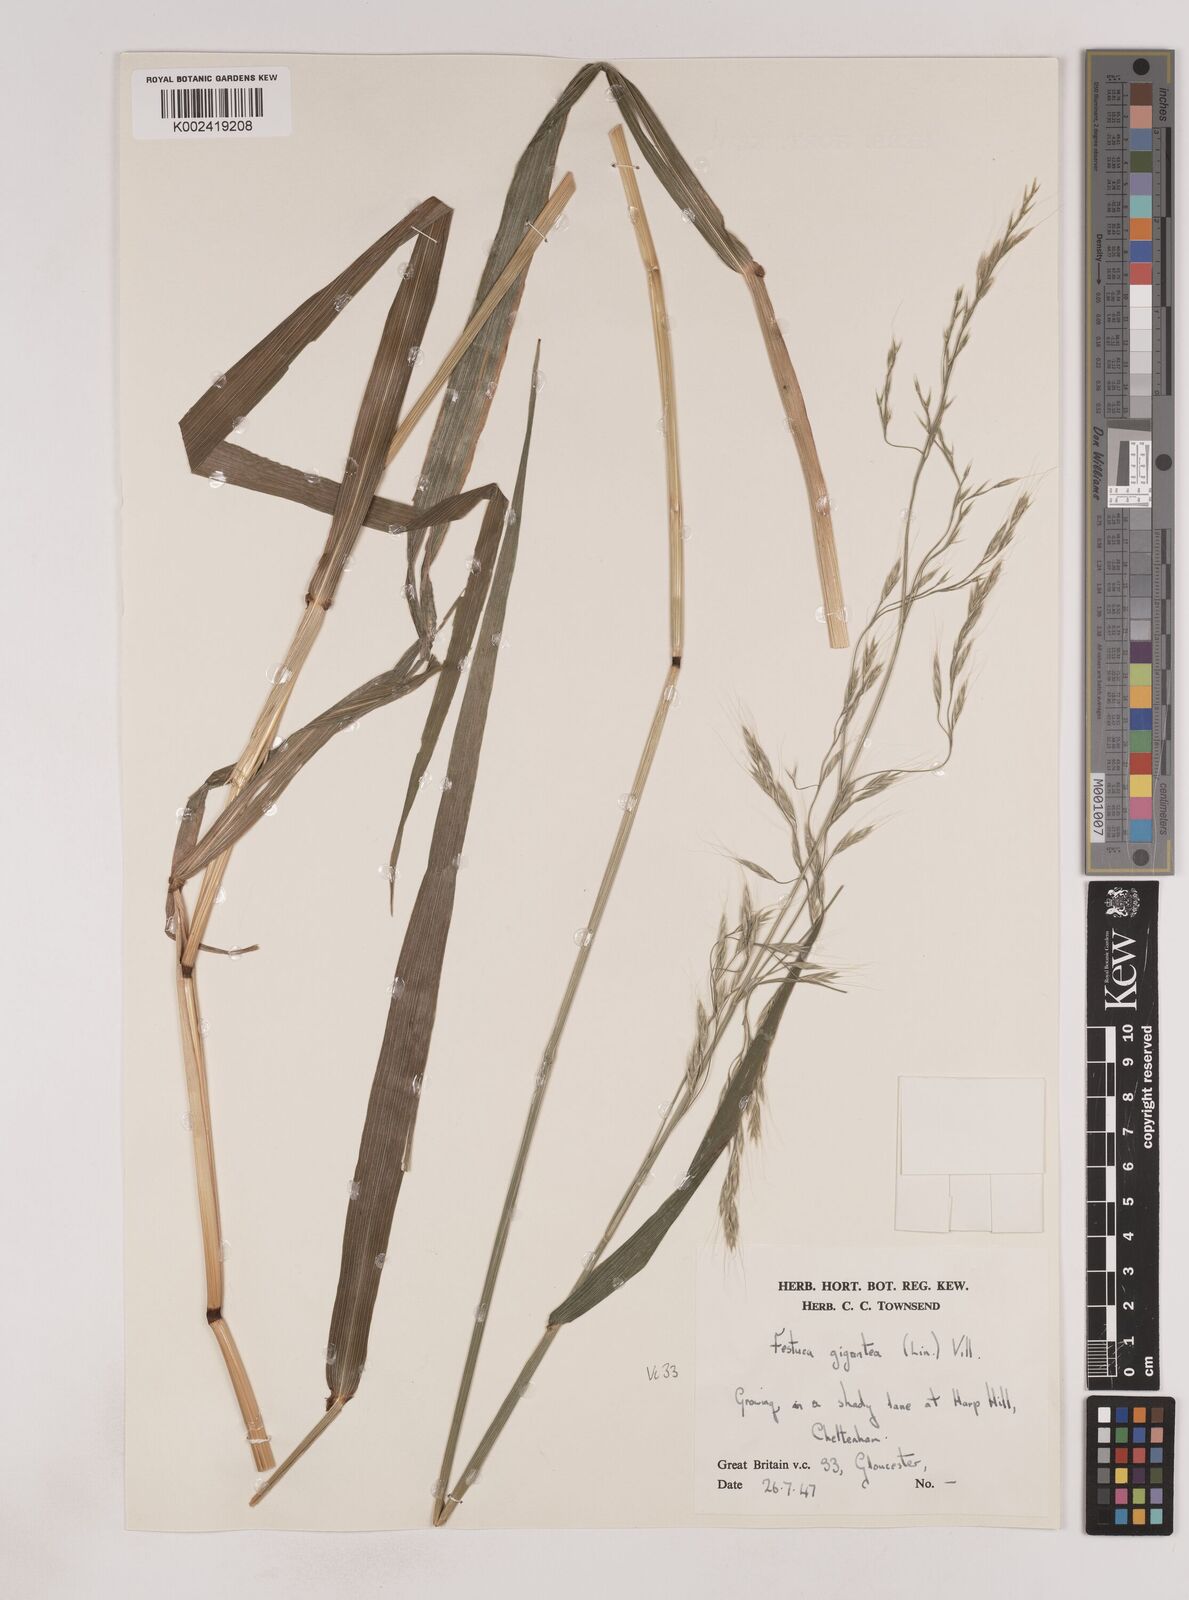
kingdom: Plantae
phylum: Tracheophyta
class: Liliopsida
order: Poales
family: Poaceae
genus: Lolium
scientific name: Lolium giganteum
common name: Giant fescue
